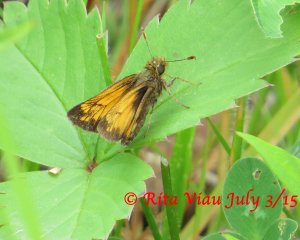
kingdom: Animalia
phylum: Arthropoda
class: Insecta
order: Lepidoptera
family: Hesperiidae
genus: Lon
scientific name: Lon hobomok
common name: Hobomok Skipper
